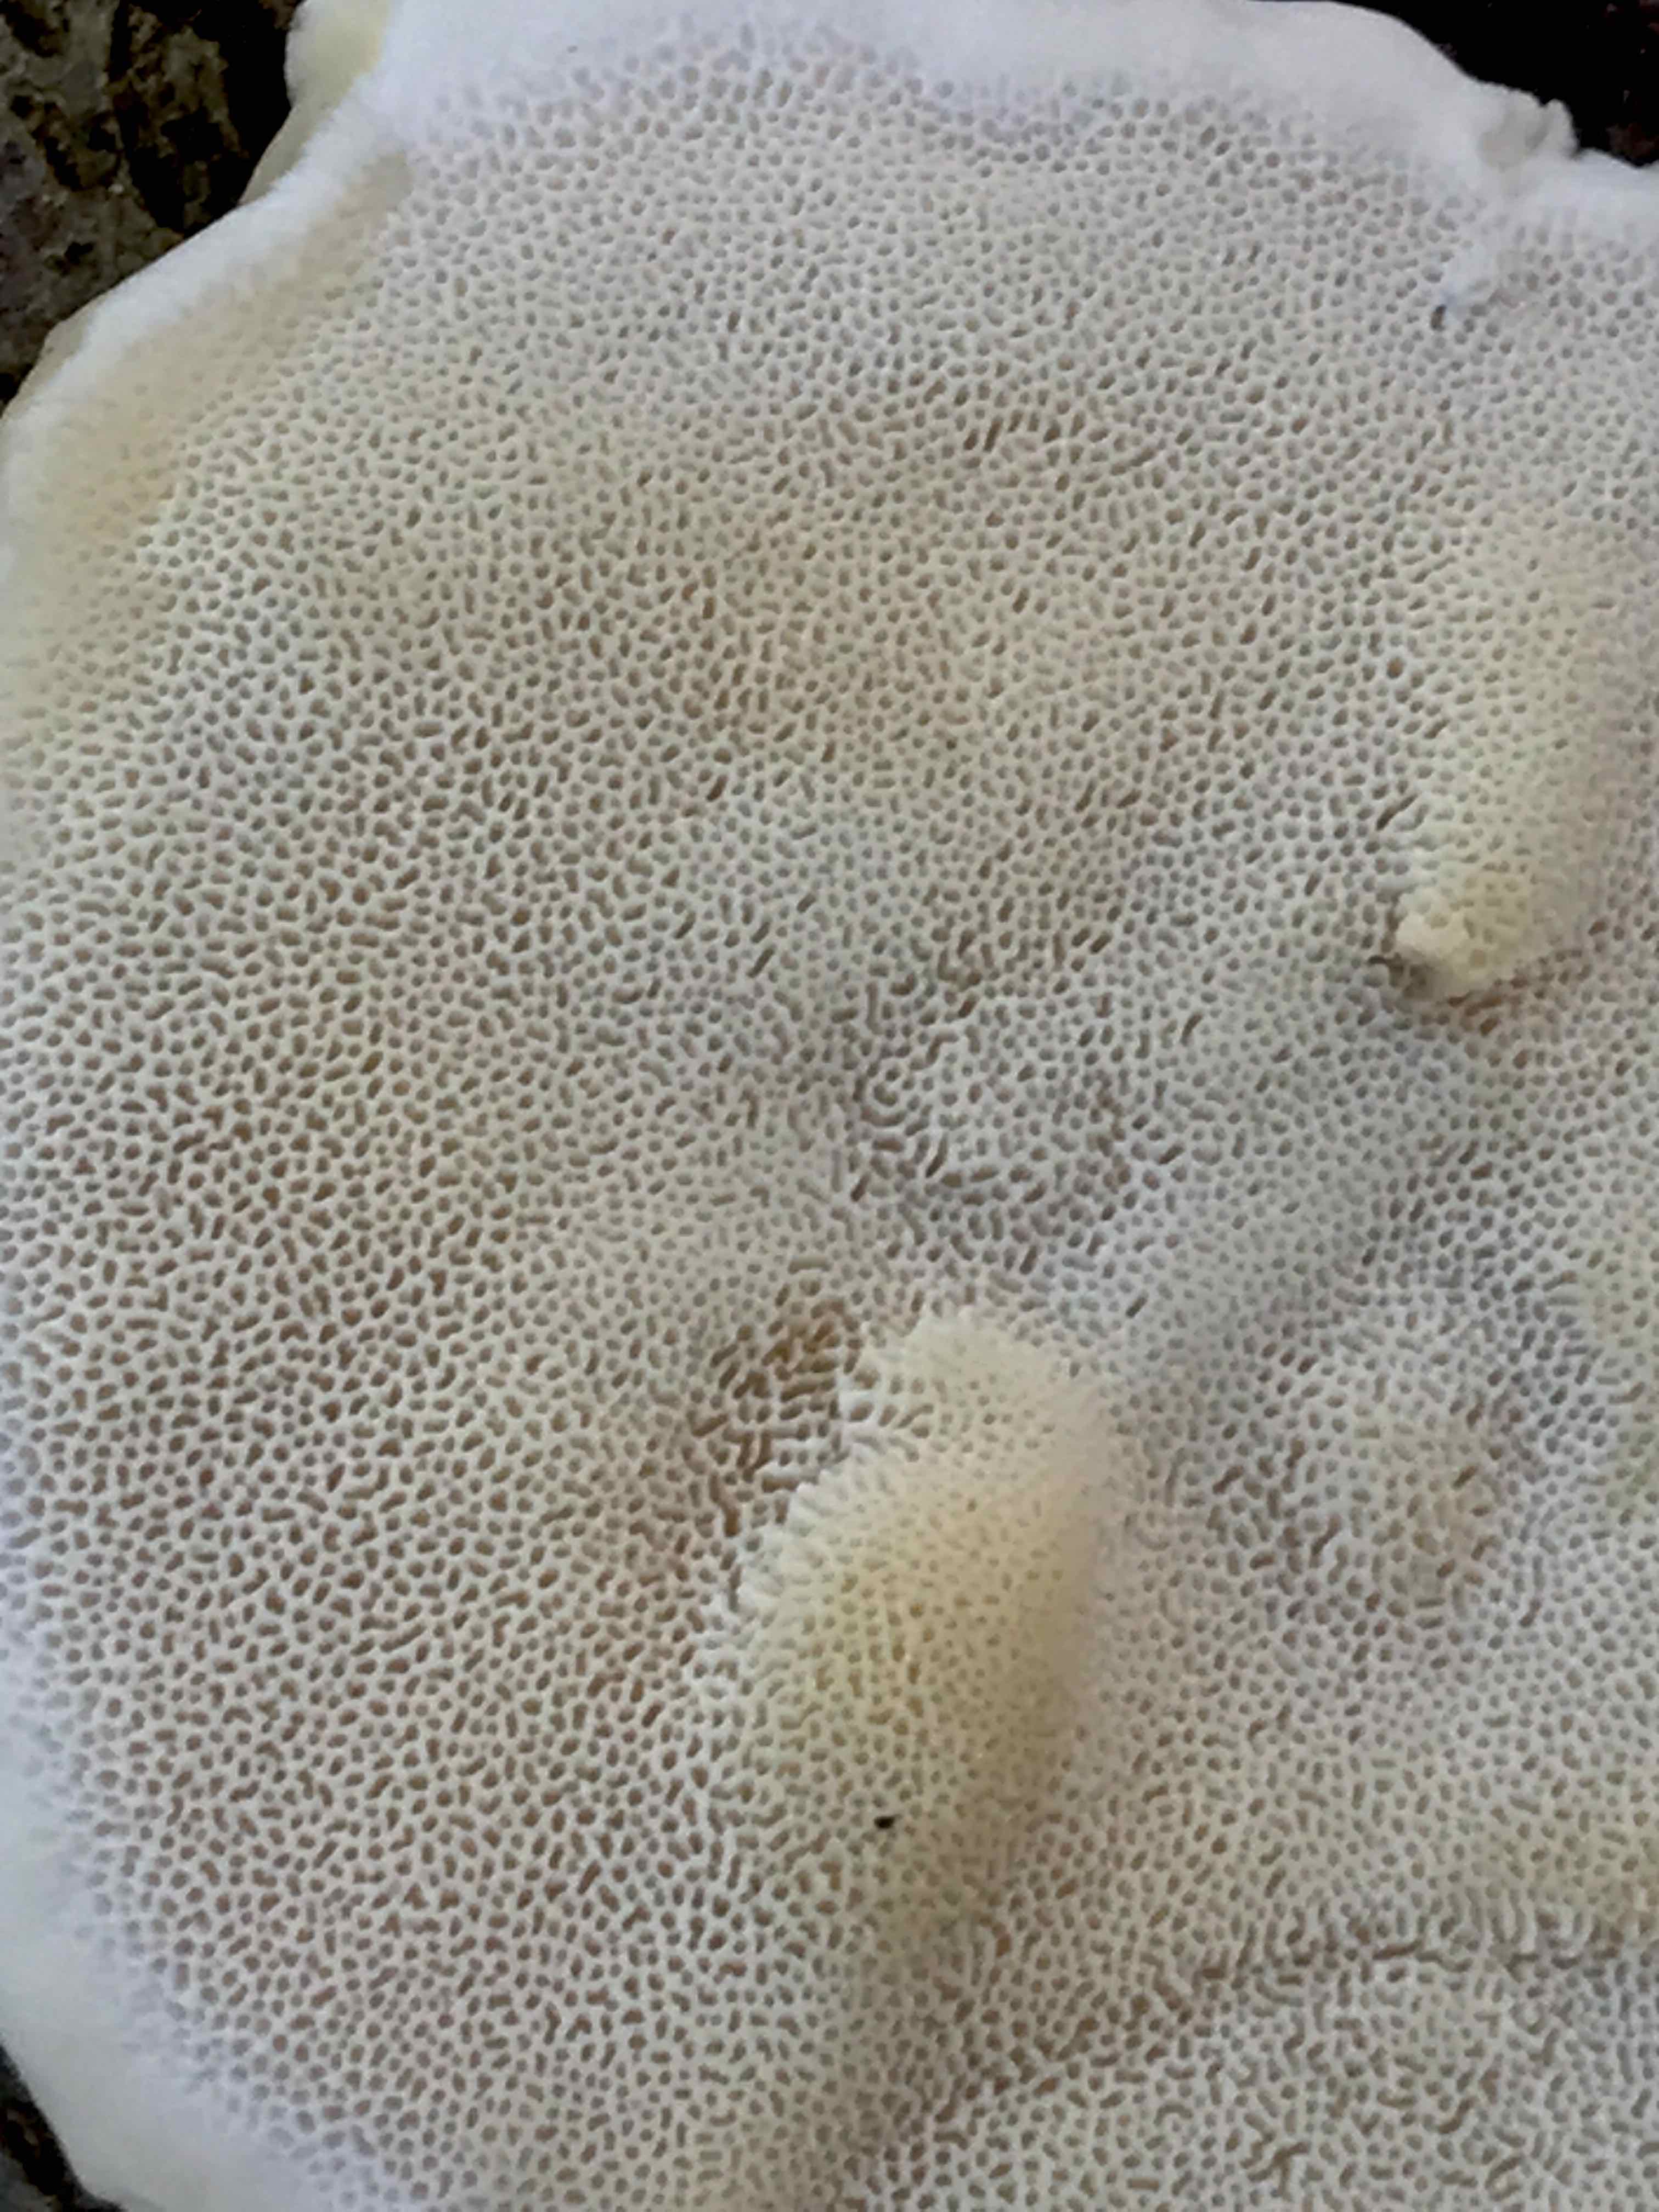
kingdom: Fungi
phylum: Basidiomycota
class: Agaricomycetes
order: Polyporales
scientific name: Polyporales
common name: poresvampordenen
